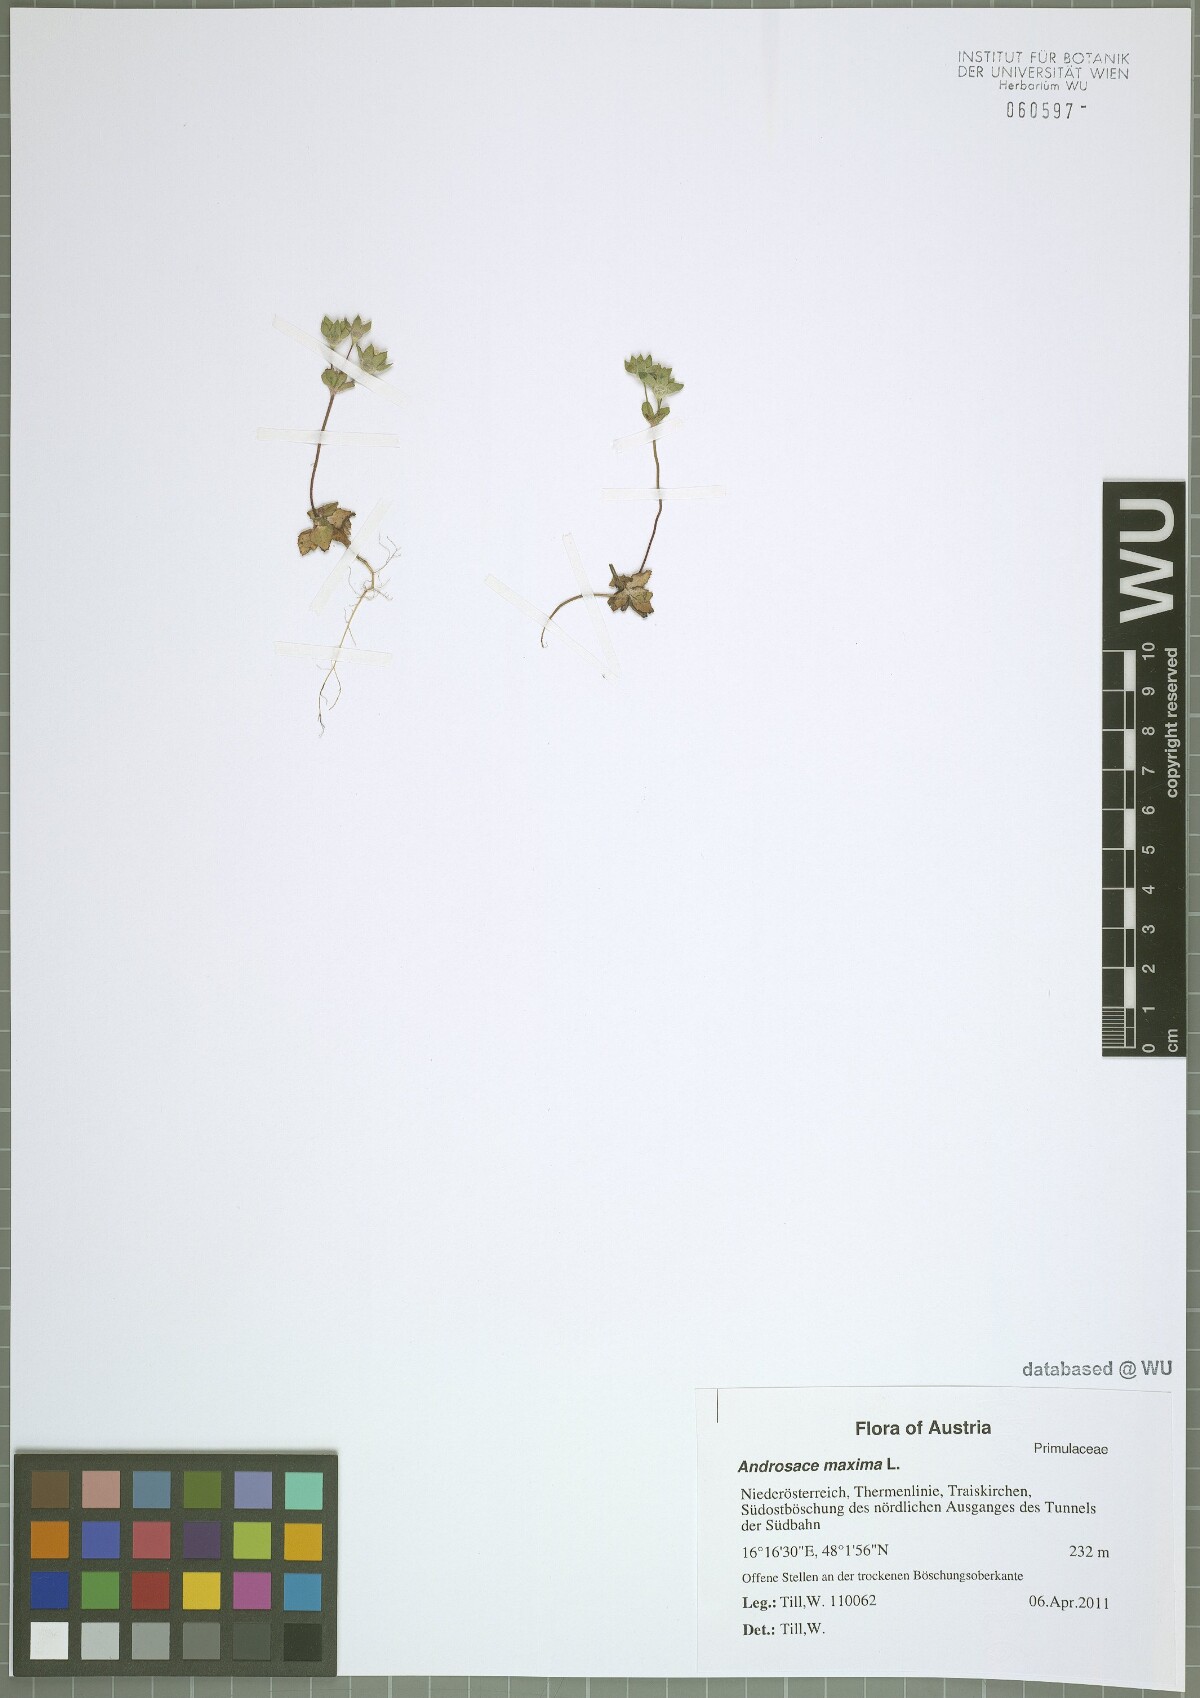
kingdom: Plantae
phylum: Tracheophyta
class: Magnoliopsida
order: Ericales
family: Primulaceae
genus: Androsace
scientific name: Androsace maxima
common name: Annual androsace
